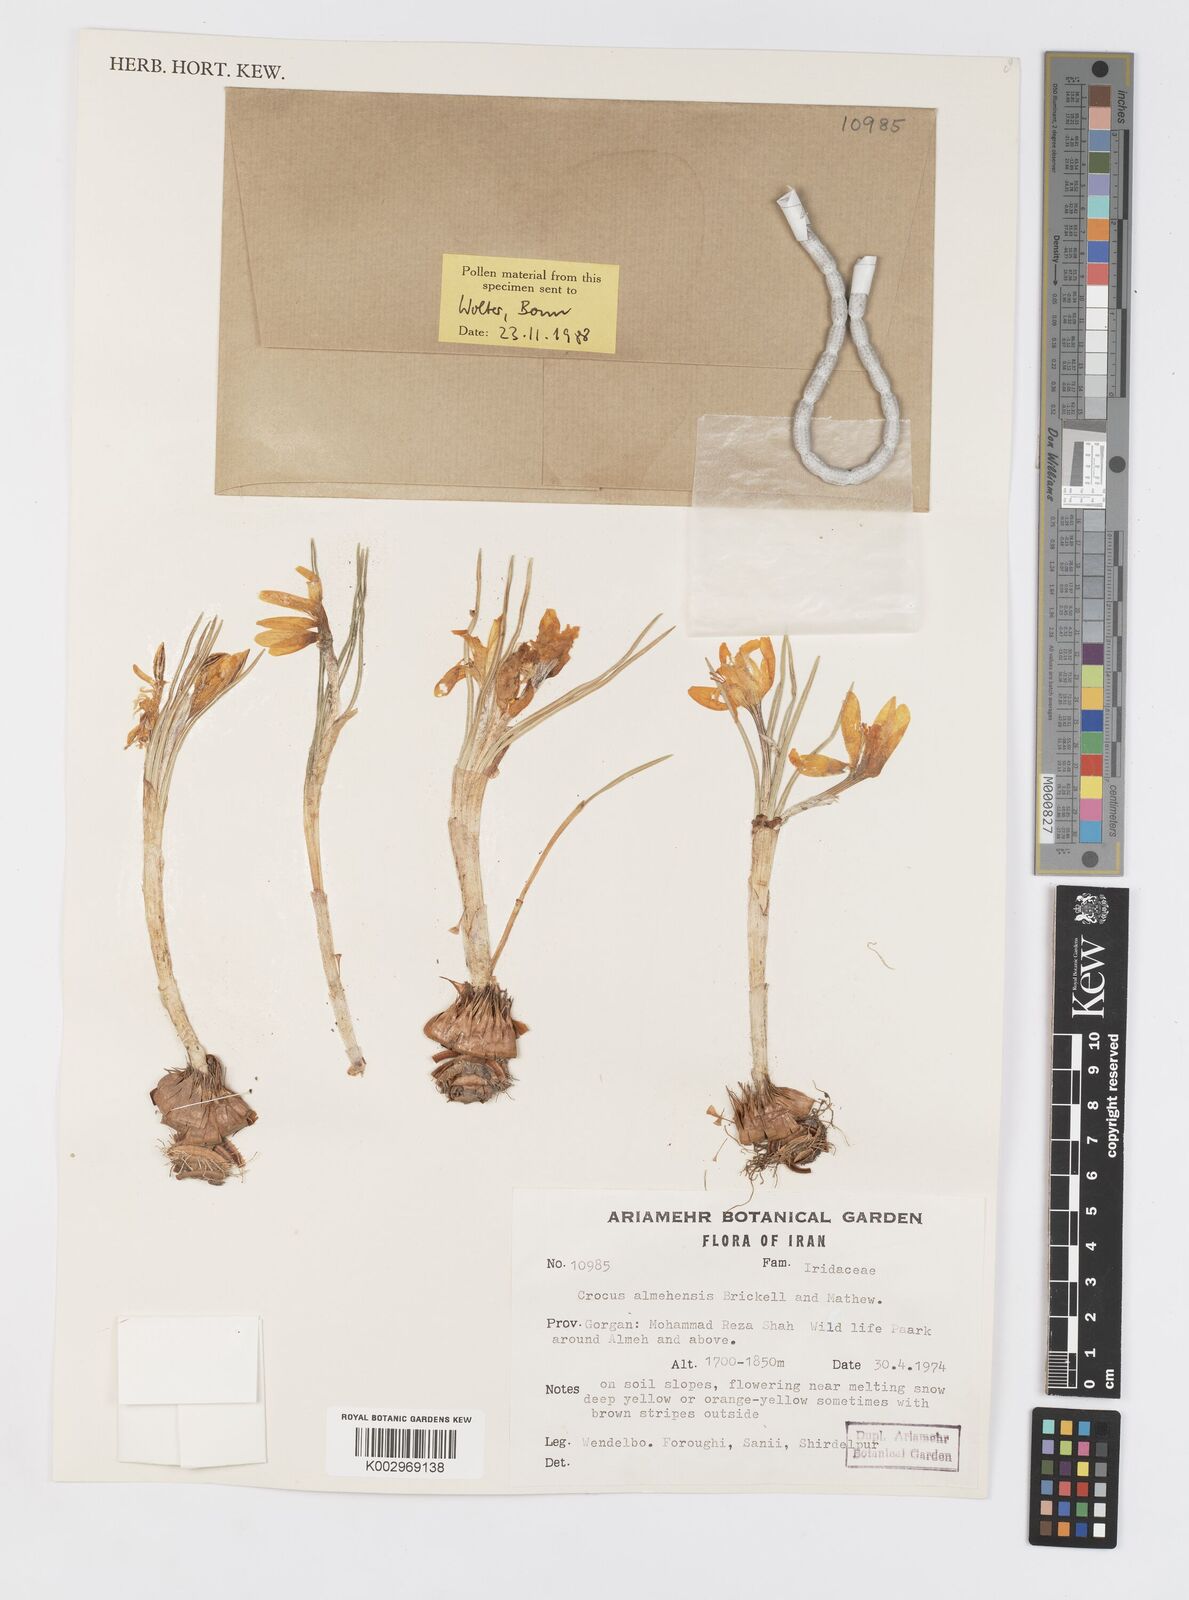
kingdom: Plantae
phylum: Tracheophyta
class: Liliopsida
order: Asparagales
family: Iridaceae
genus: Crocus
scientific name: Crocus almehensis
